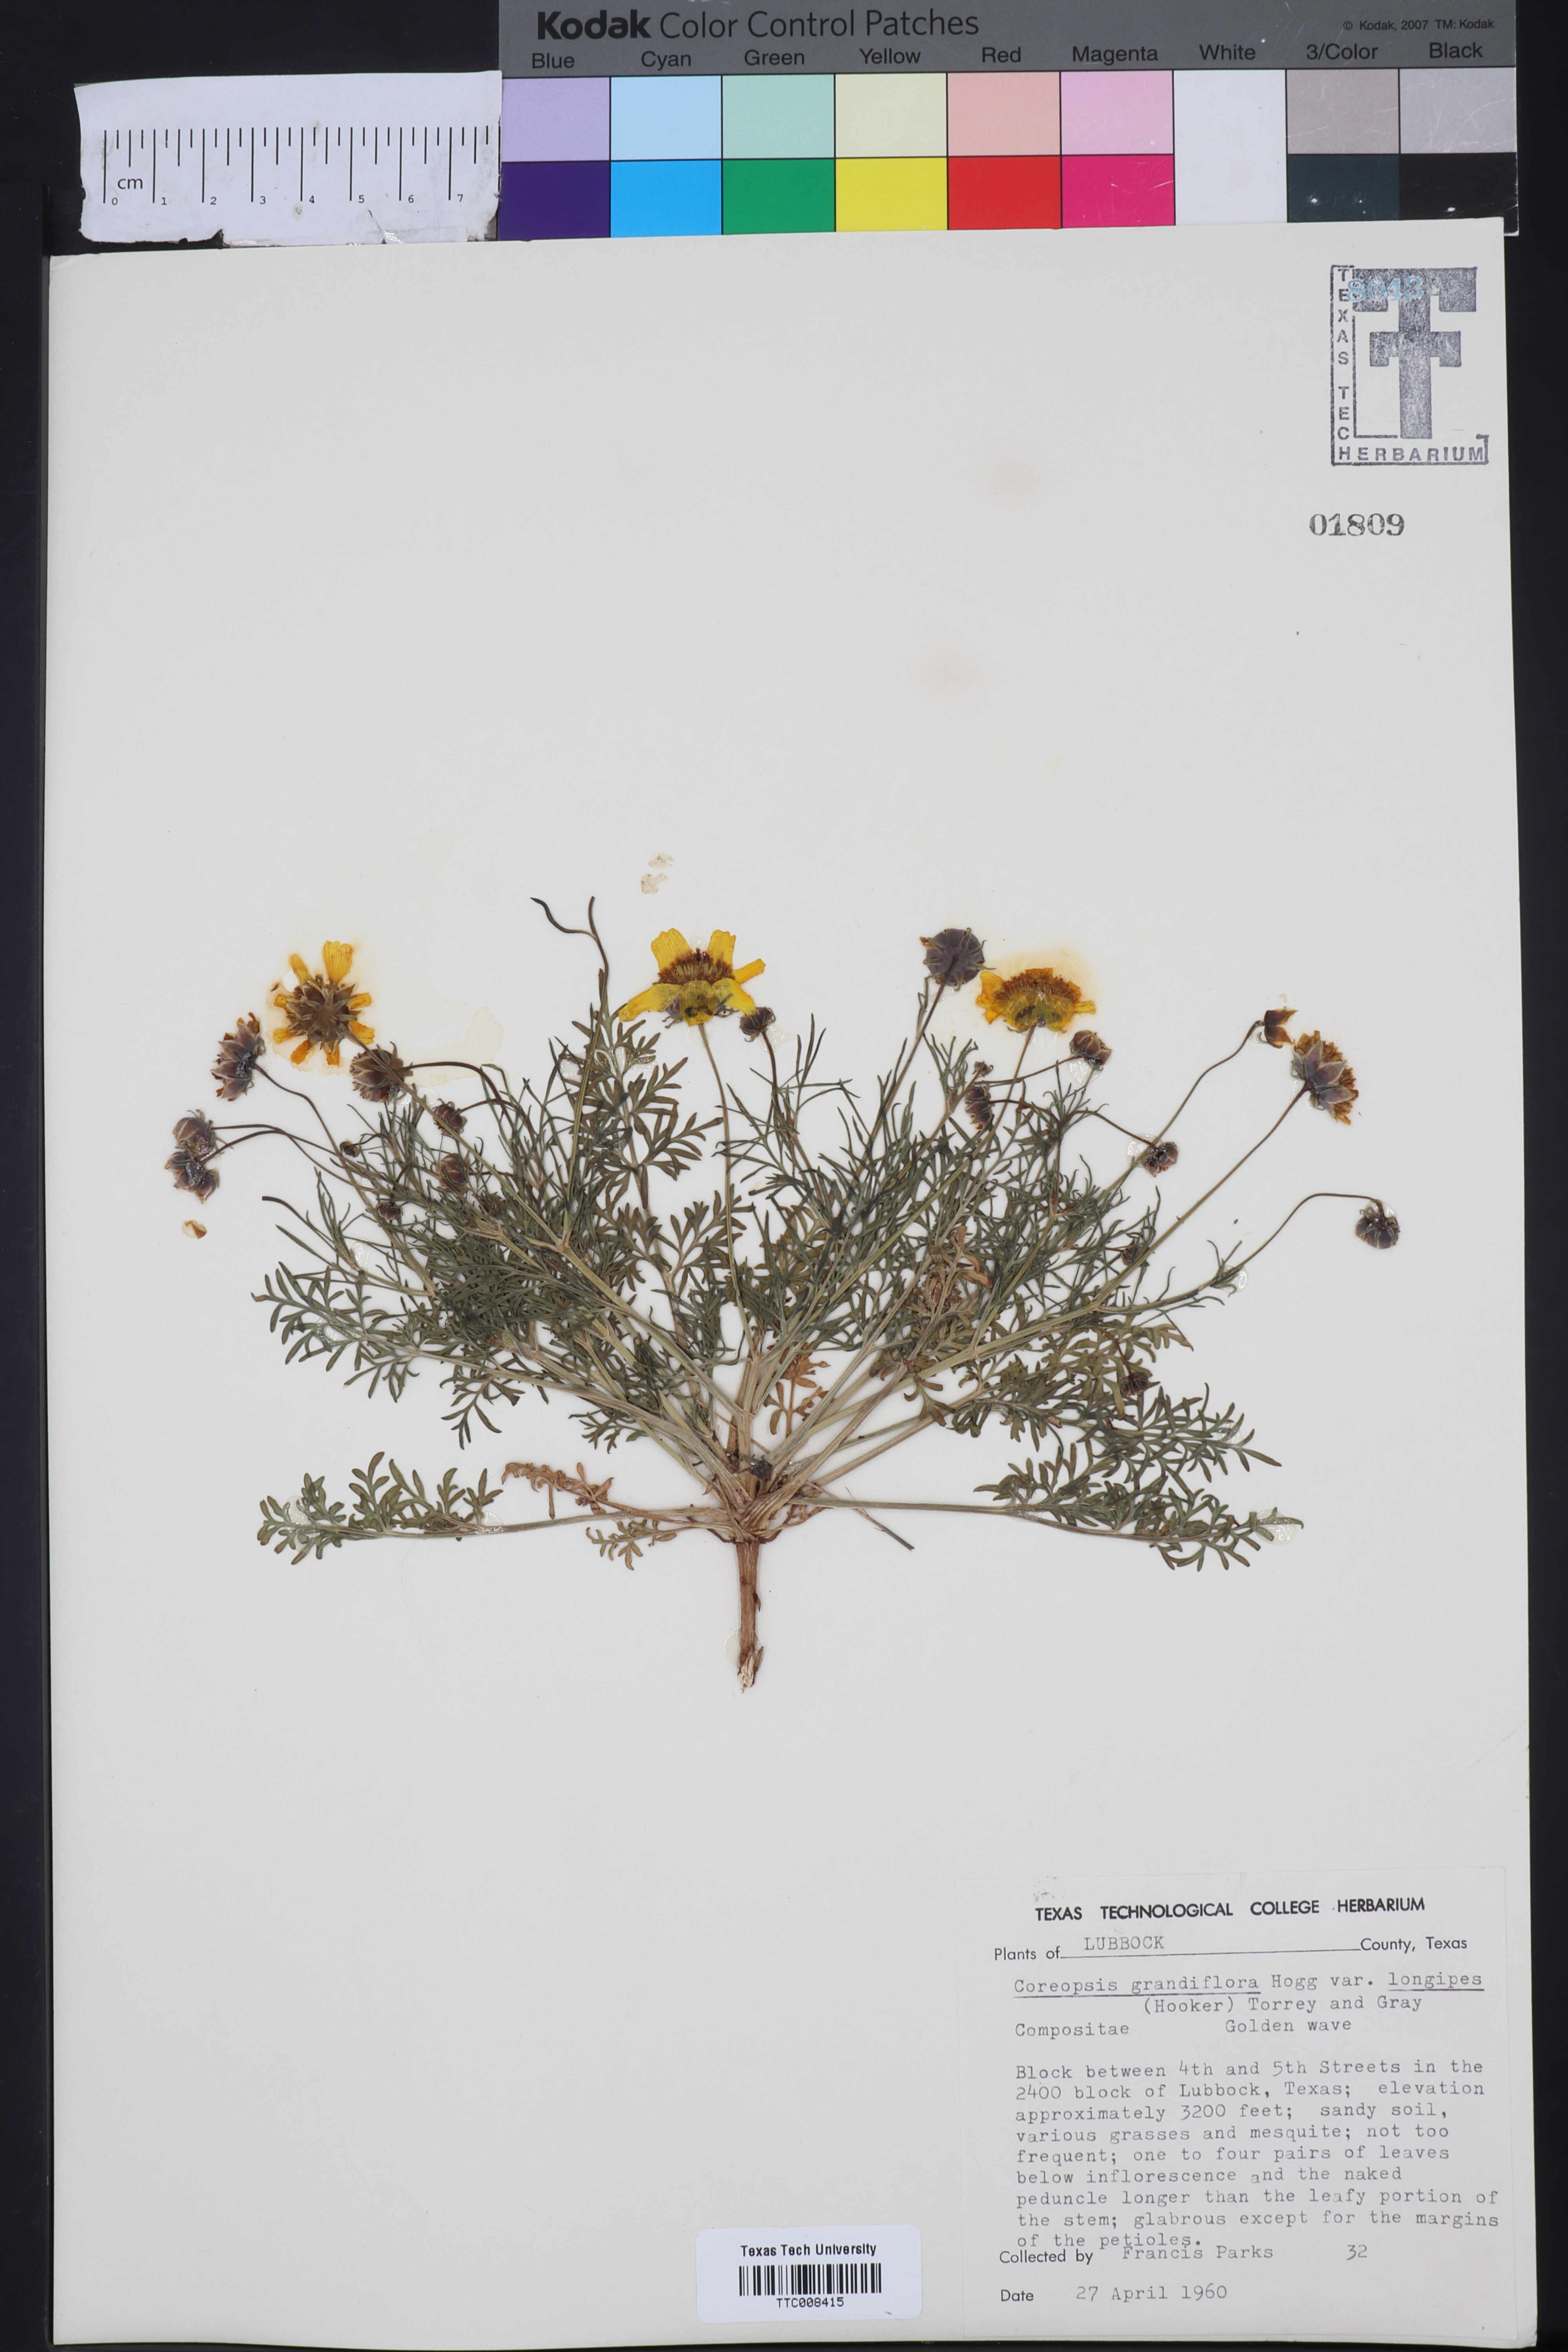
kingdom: Plantae
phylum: Tracheophyta
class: Magnoliopsida
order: Asterales
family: Asteraceae
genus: Coreopsis
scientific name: Coreopsis grandiflora
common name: Large-flowered tickseed
